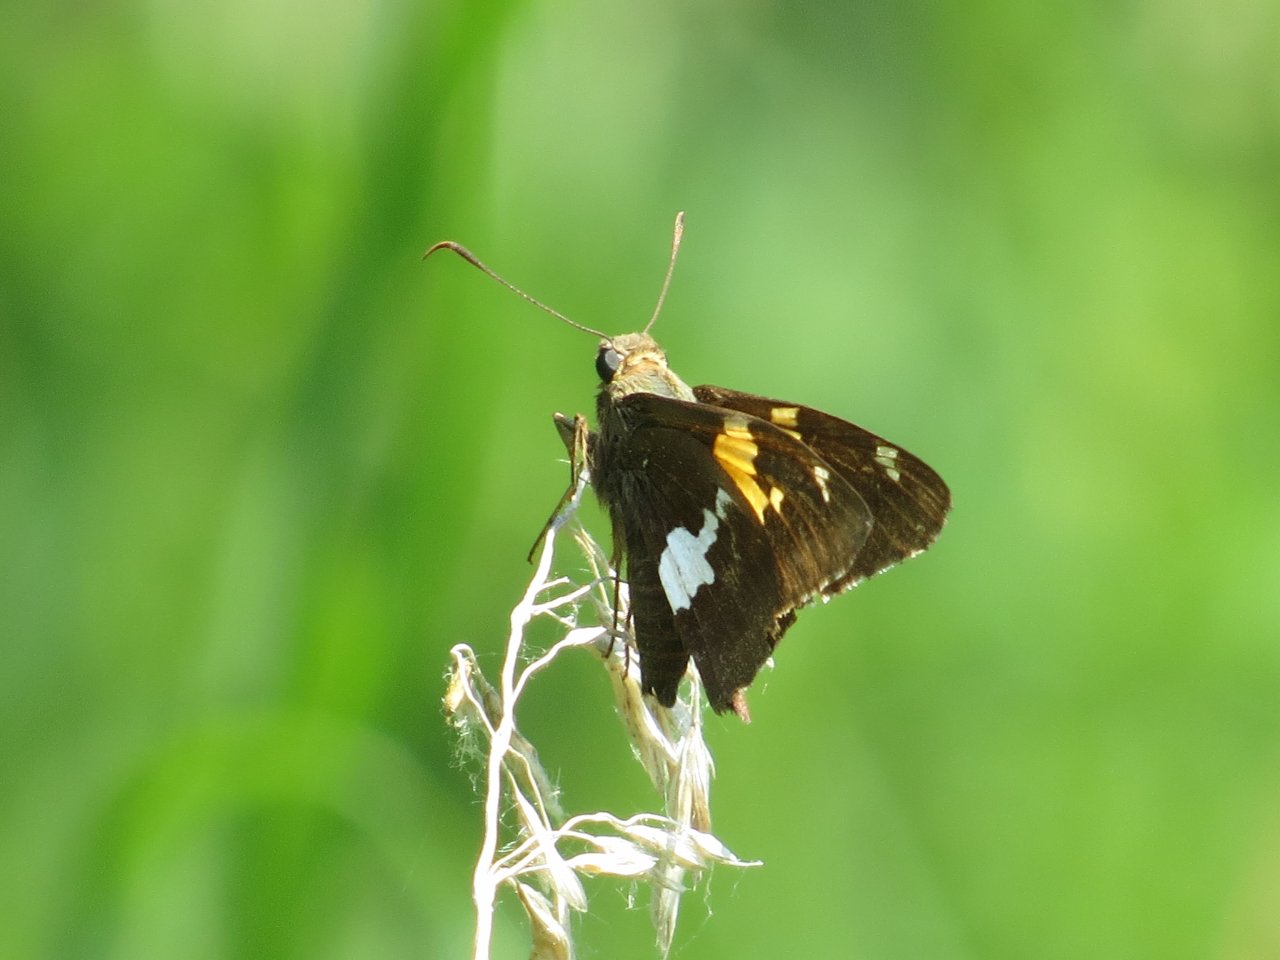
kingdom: Animalia
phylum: Arthropoda
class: Insecta
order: Lepidoptera
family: Hesperiidae
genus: Epargyreus
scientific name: Epargyreus clarus
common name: Silver-spotted Skipper
